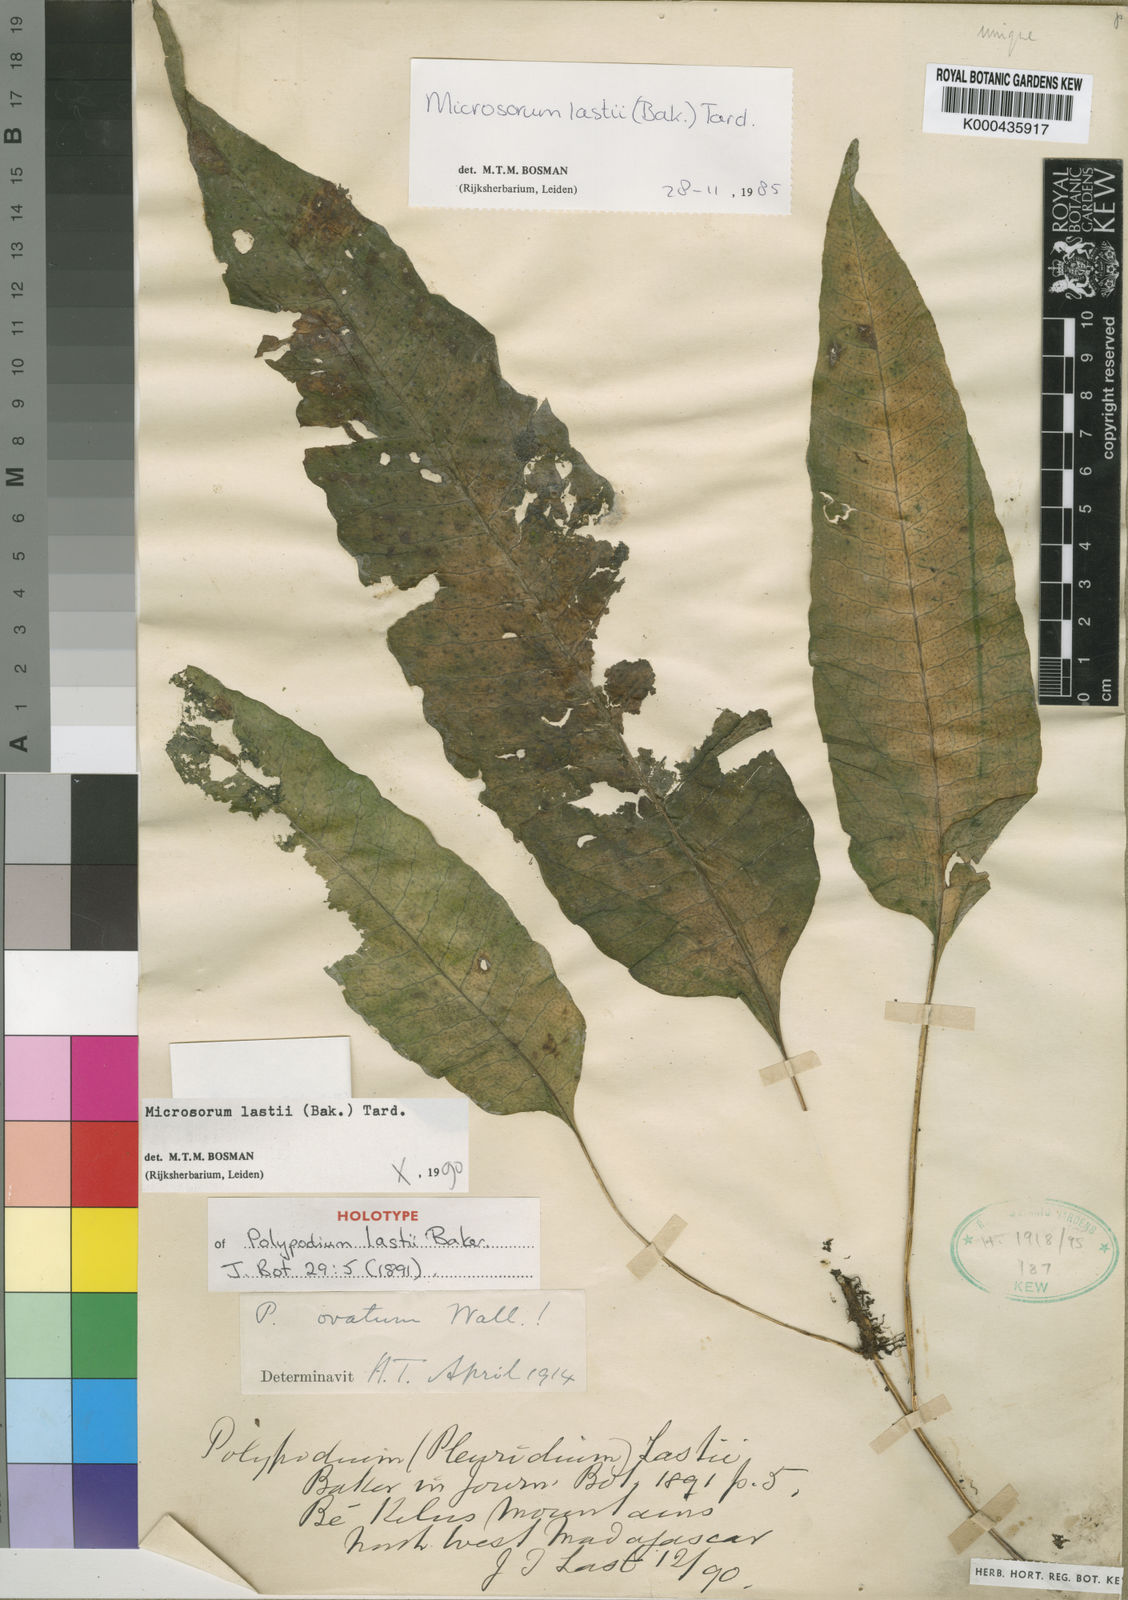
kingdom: Plantae
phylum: Tracheophyta
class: Polypodiopsida
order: Polypodiales
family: Polypodiaceae
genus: Bosmania
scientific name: Bosmania lastii
